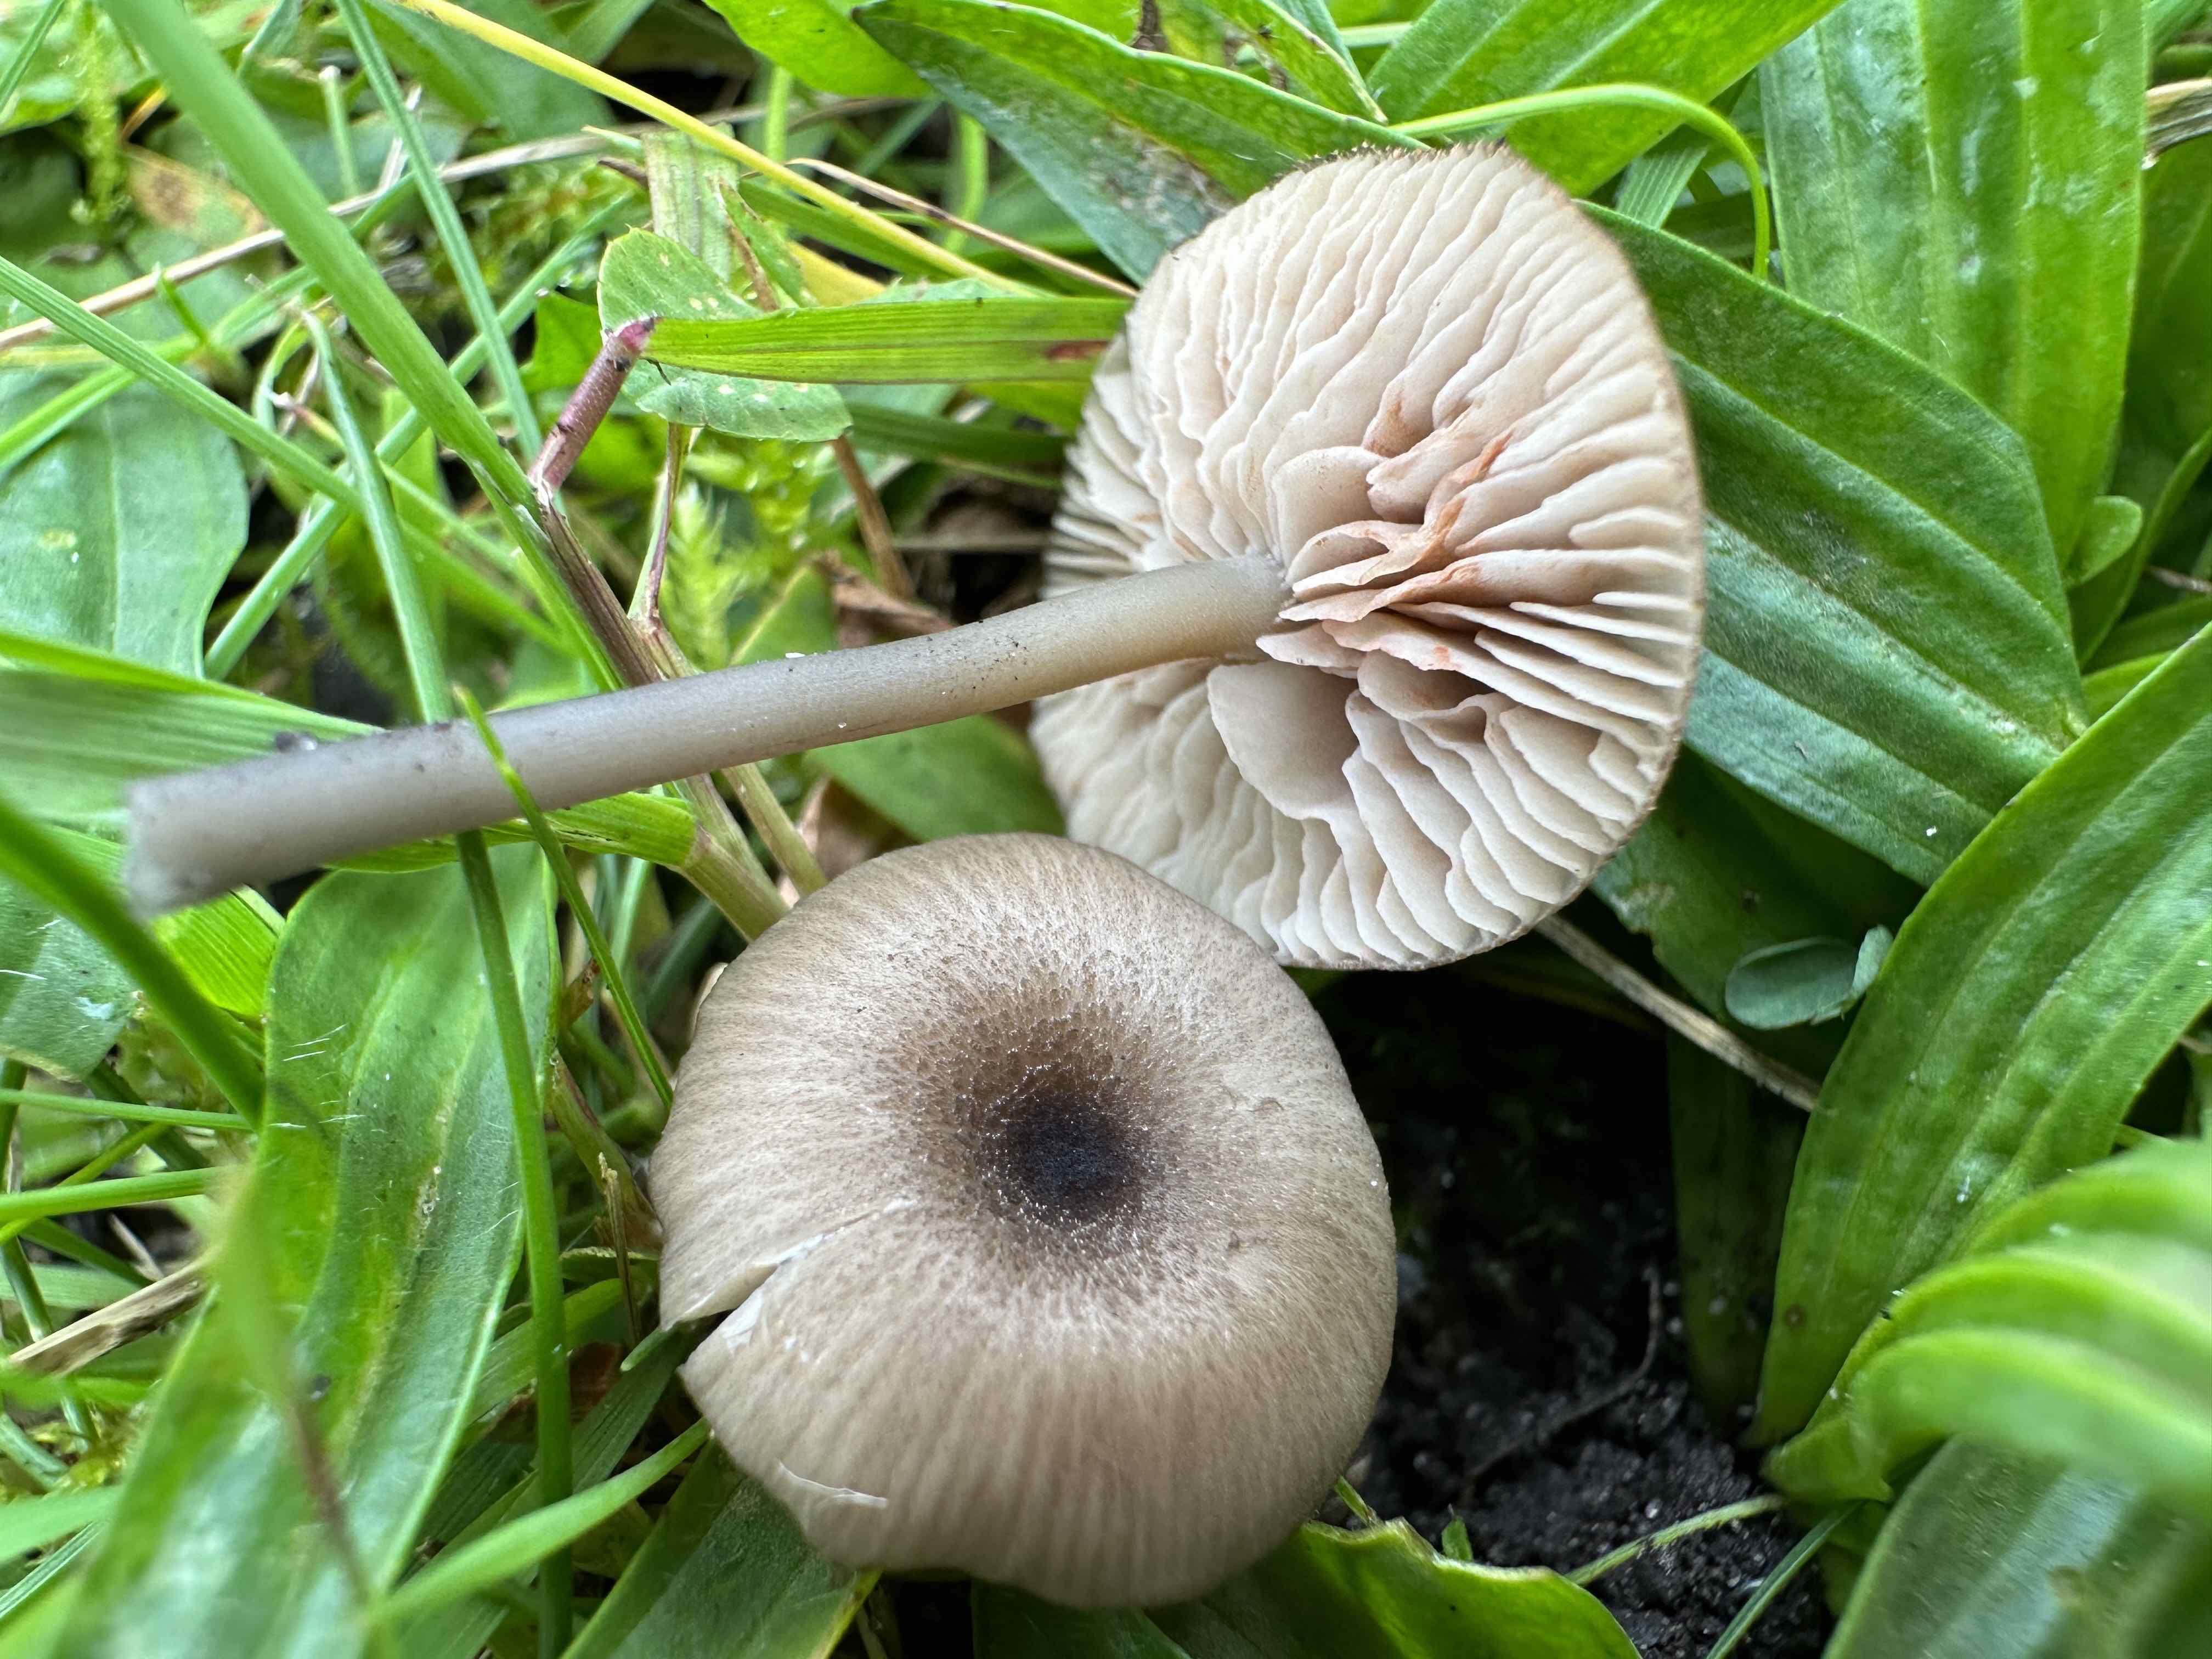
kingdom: Fungi
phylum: Basidiomycota
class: Agaricomycetes
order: Agaricales
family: Entolomataceae
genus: Entoloma
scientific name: Entoloma exile
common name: rødplettet rødblad
